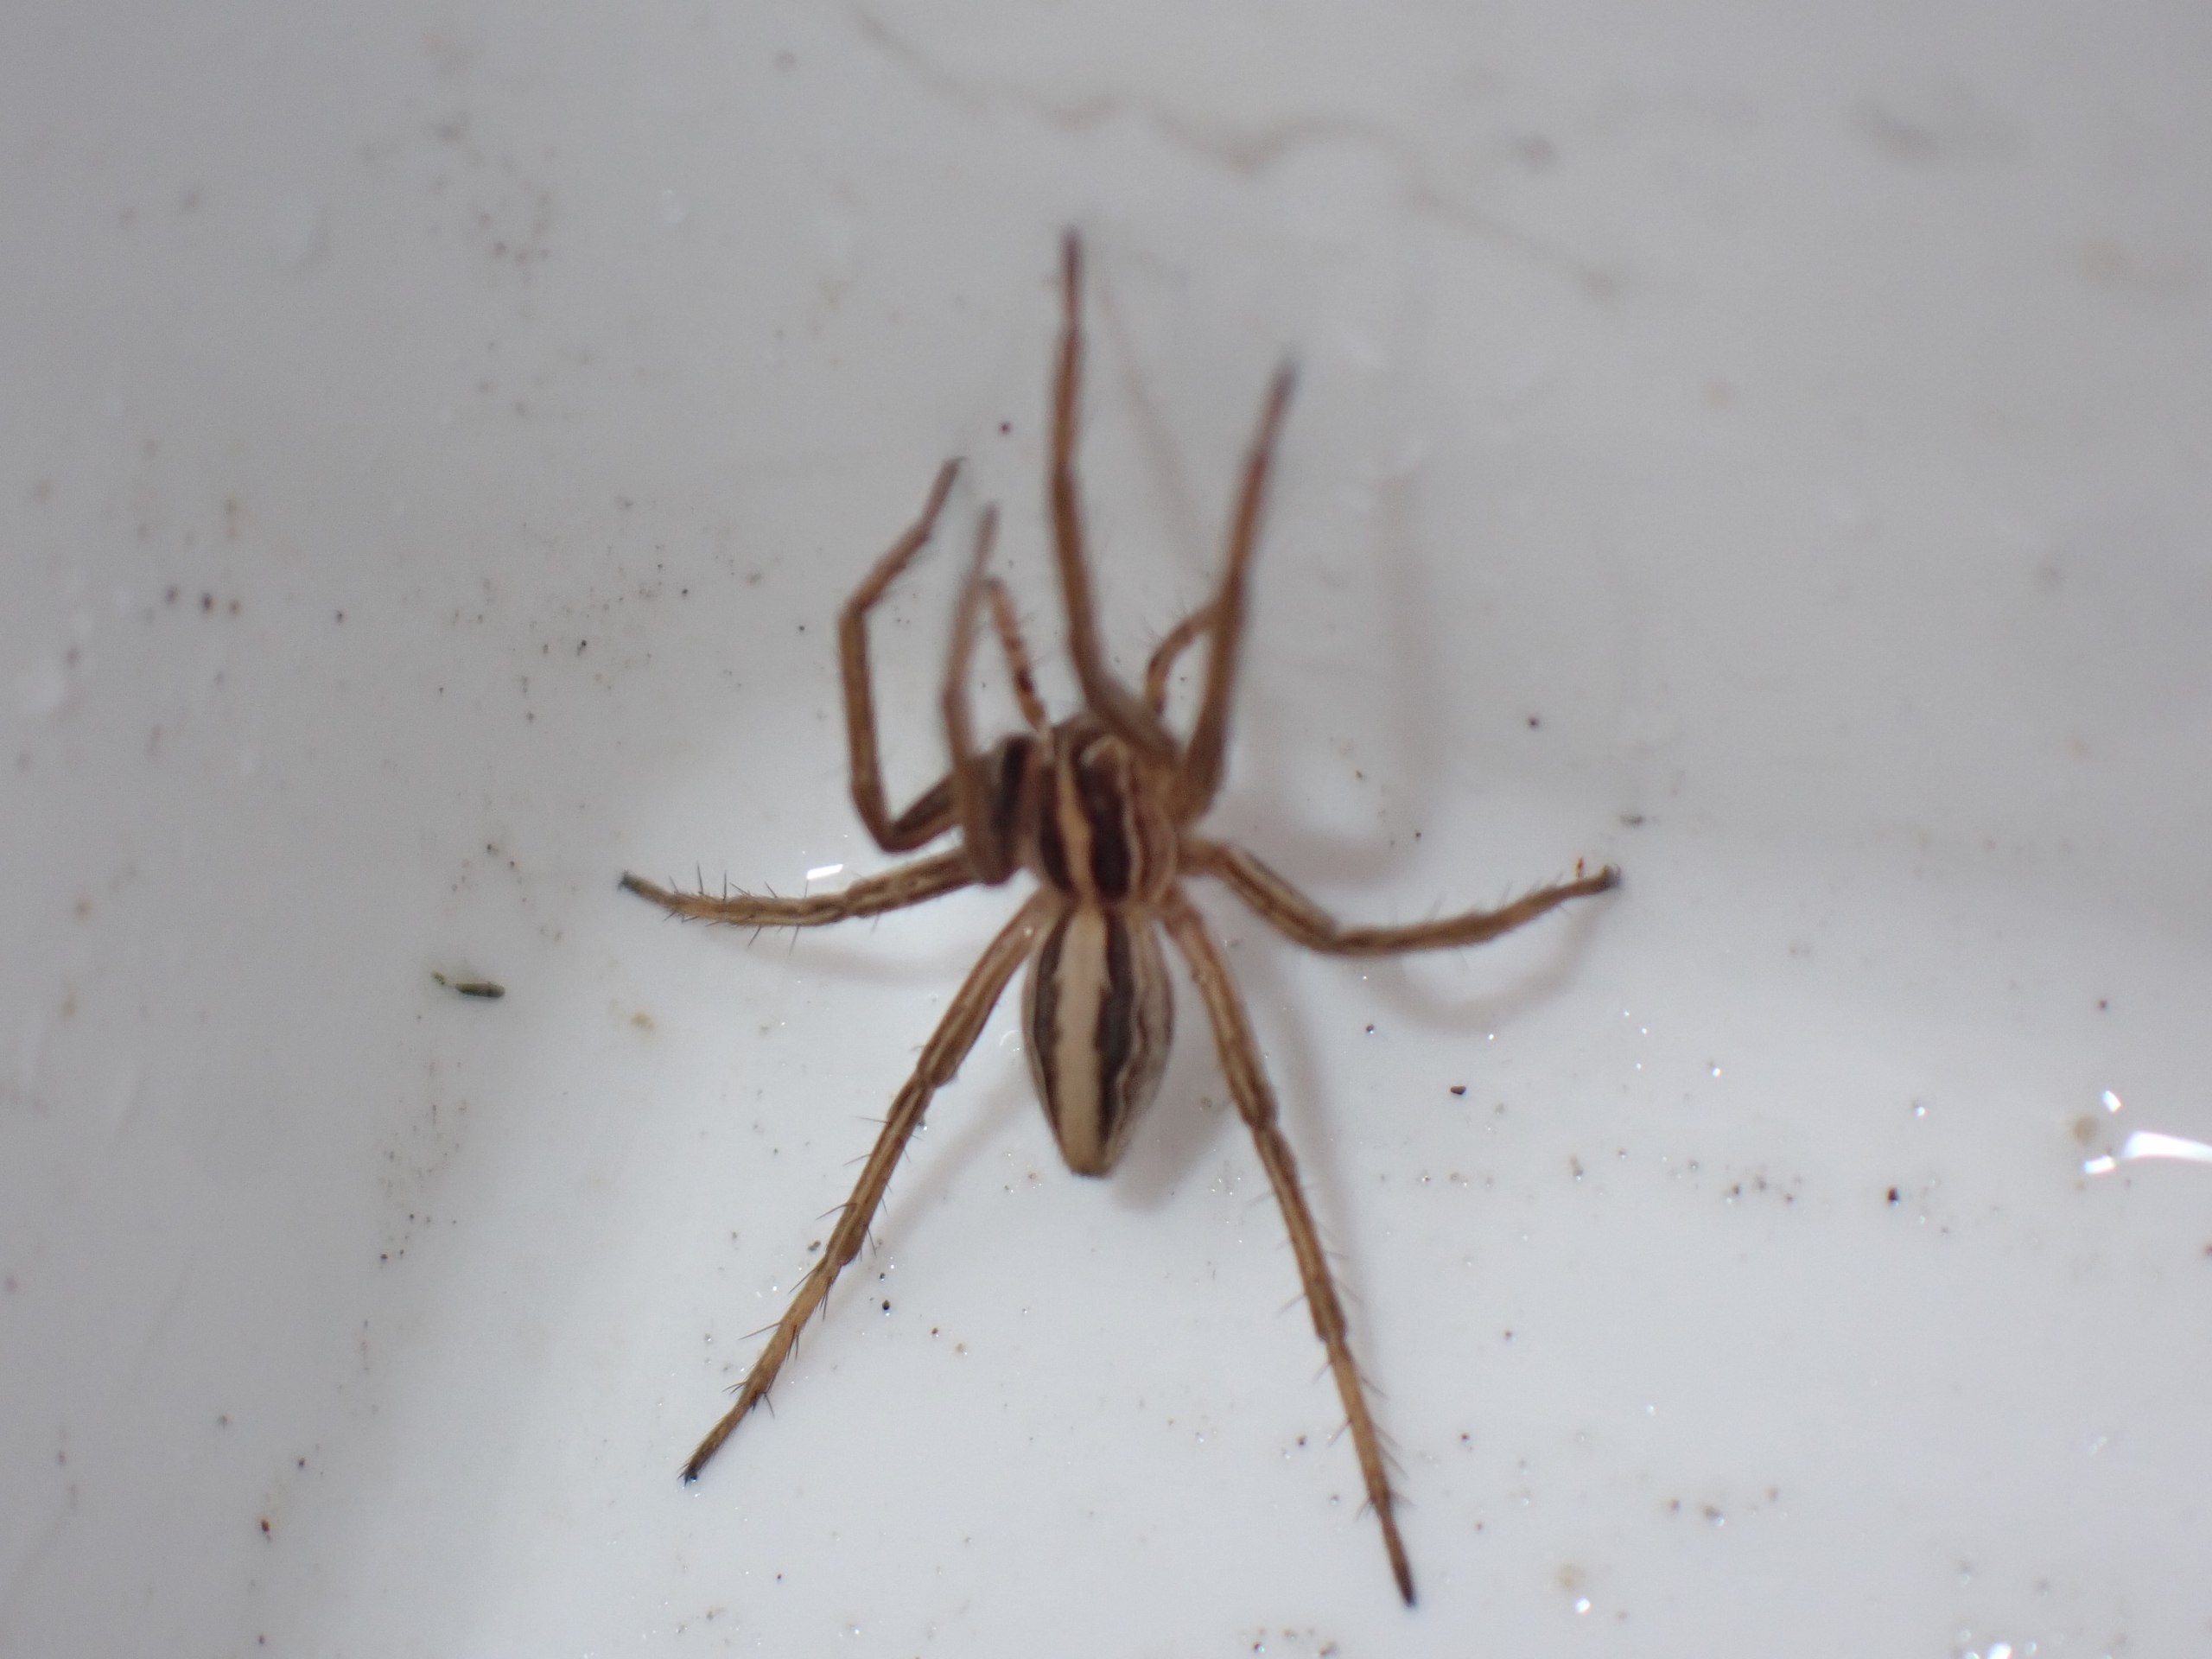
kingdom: Animalia
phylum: Arthropoda
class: Arachnida
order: Araneae
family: Pisauridae
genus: Pisaura
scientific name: Pisaura mirabilis
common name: Almindelig rovedderkop
